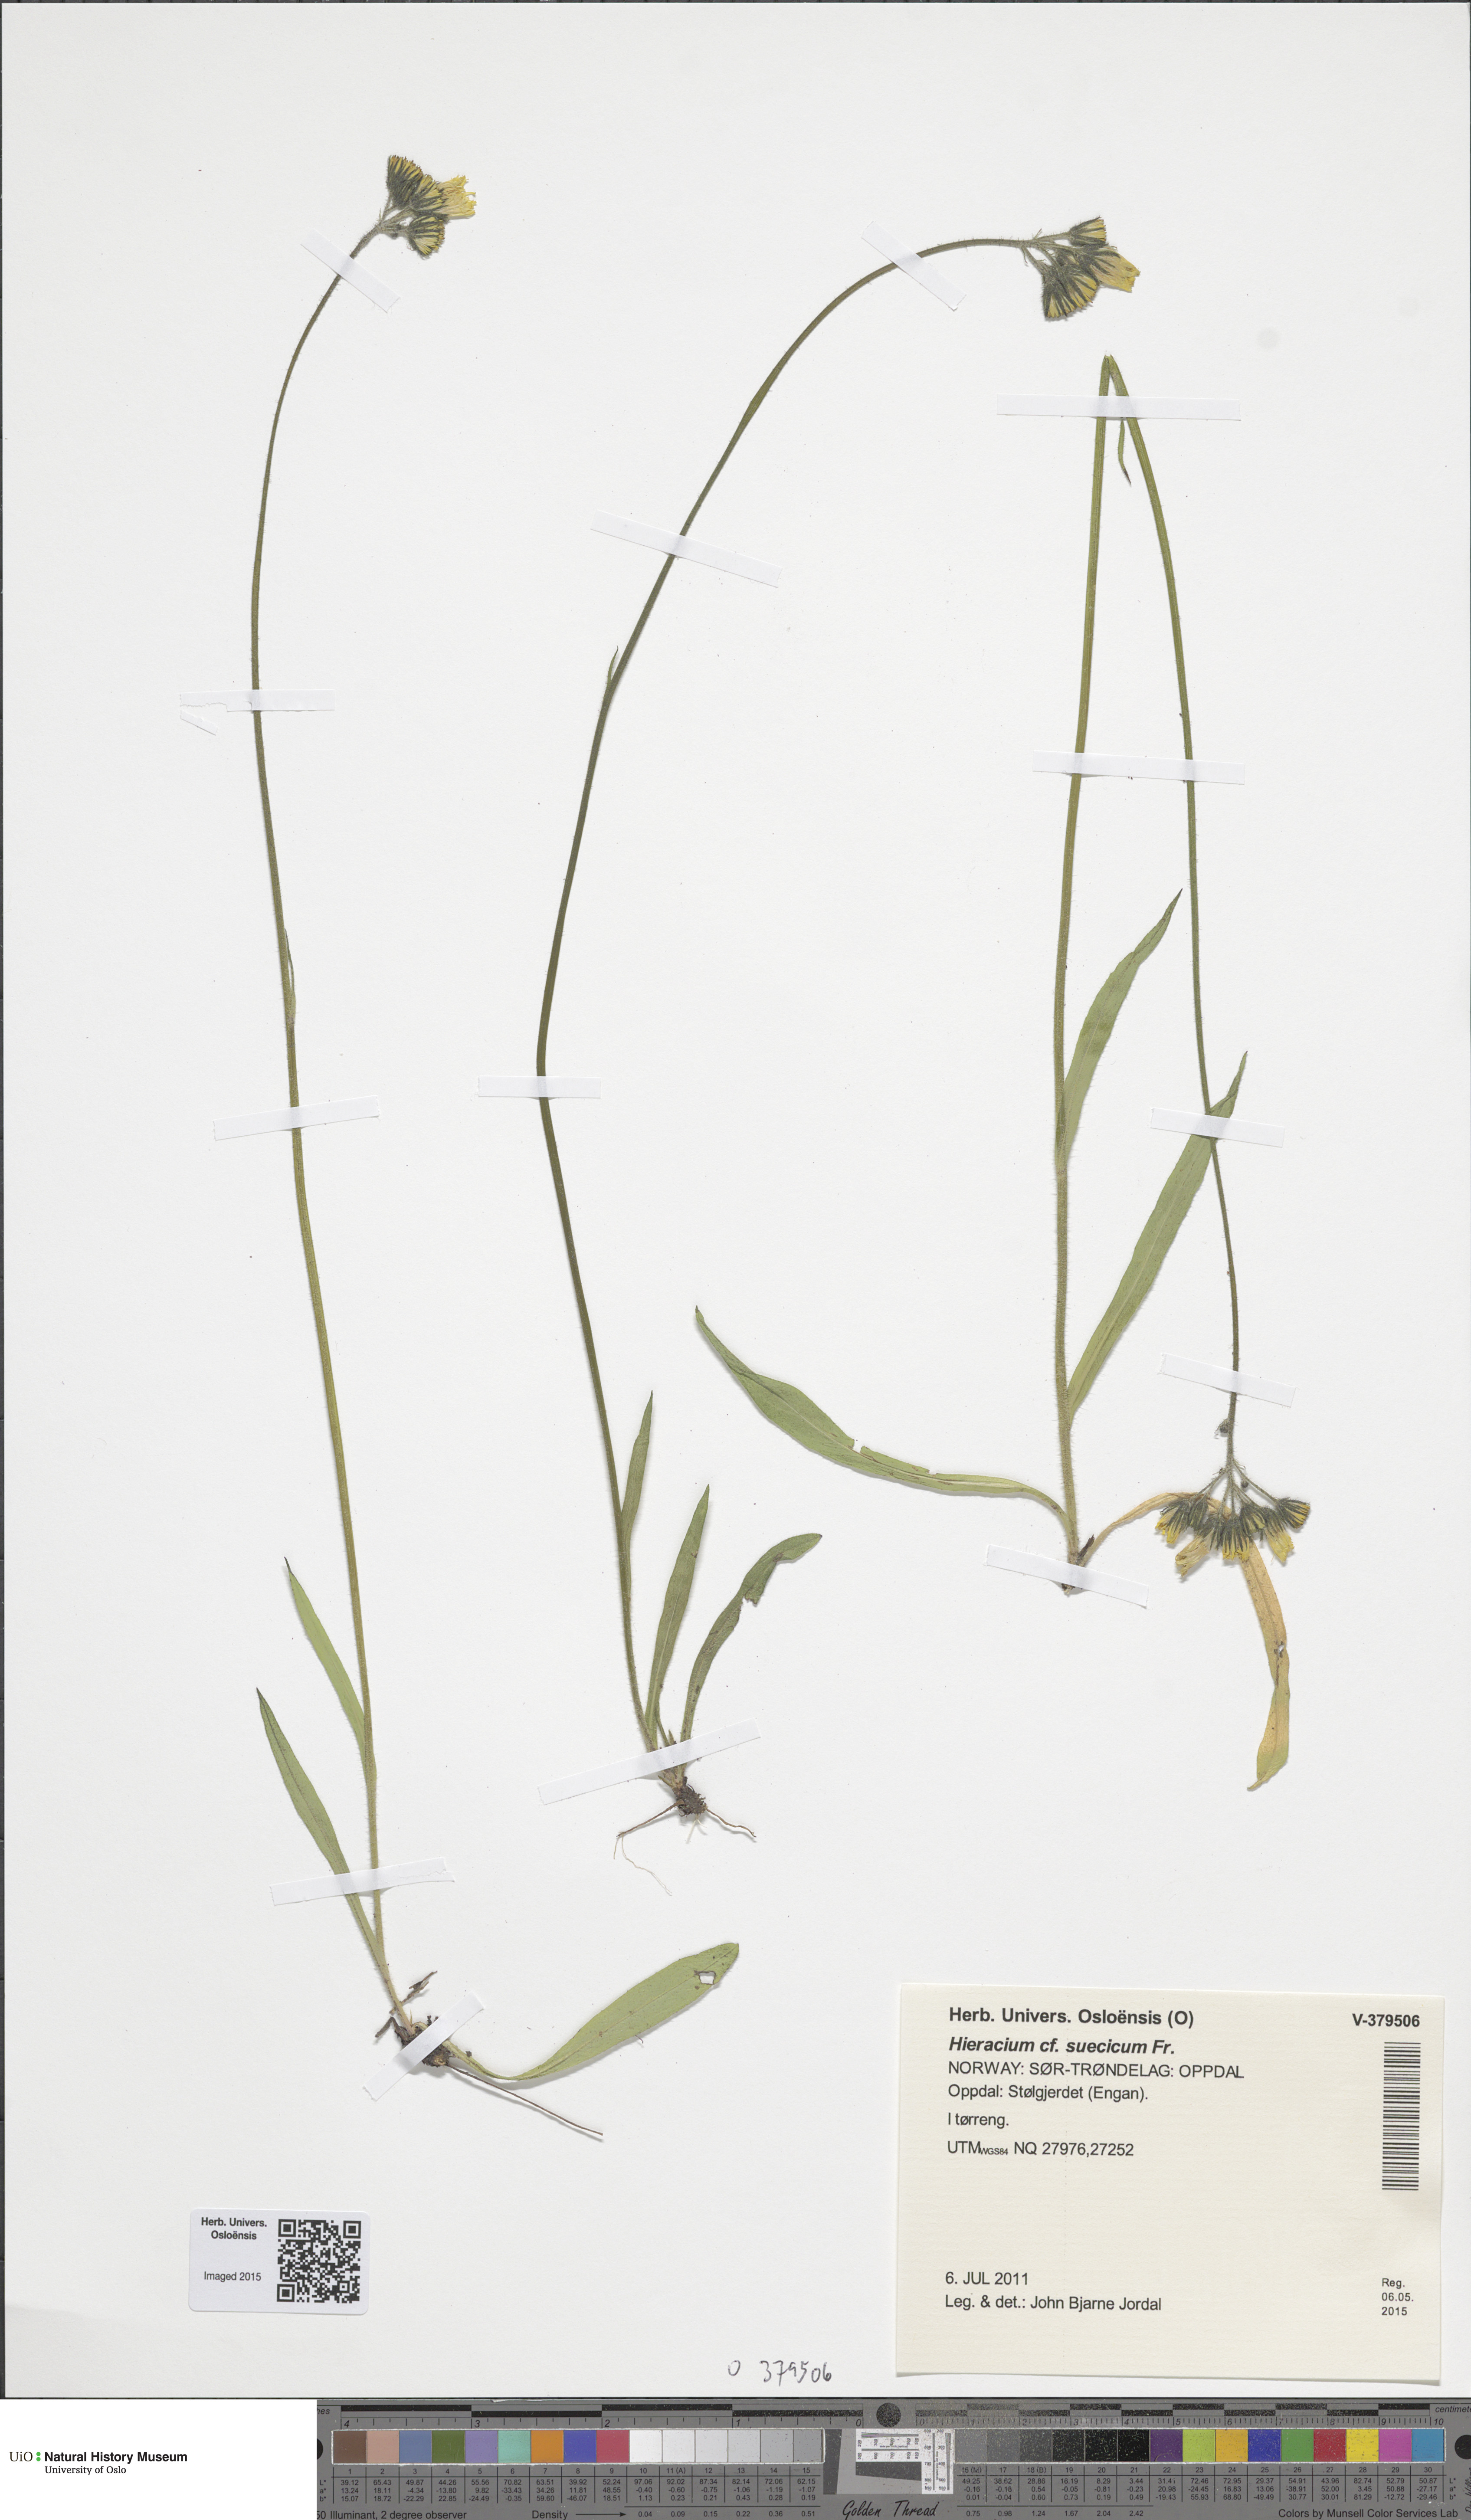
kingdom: Plantae
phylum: Tracheophyta
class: Magnoliopsida
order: Asterales
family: Asteraceae
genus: Pilosella
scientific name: Pilosella dubia
